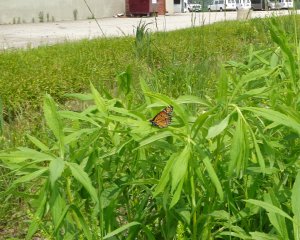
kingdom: Animalia
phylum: Arthropoda
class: Insecta
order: Lepidoptera
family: Nymphalidae
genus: Limenitis
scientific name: Limenitis archippus
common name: Viceroy
